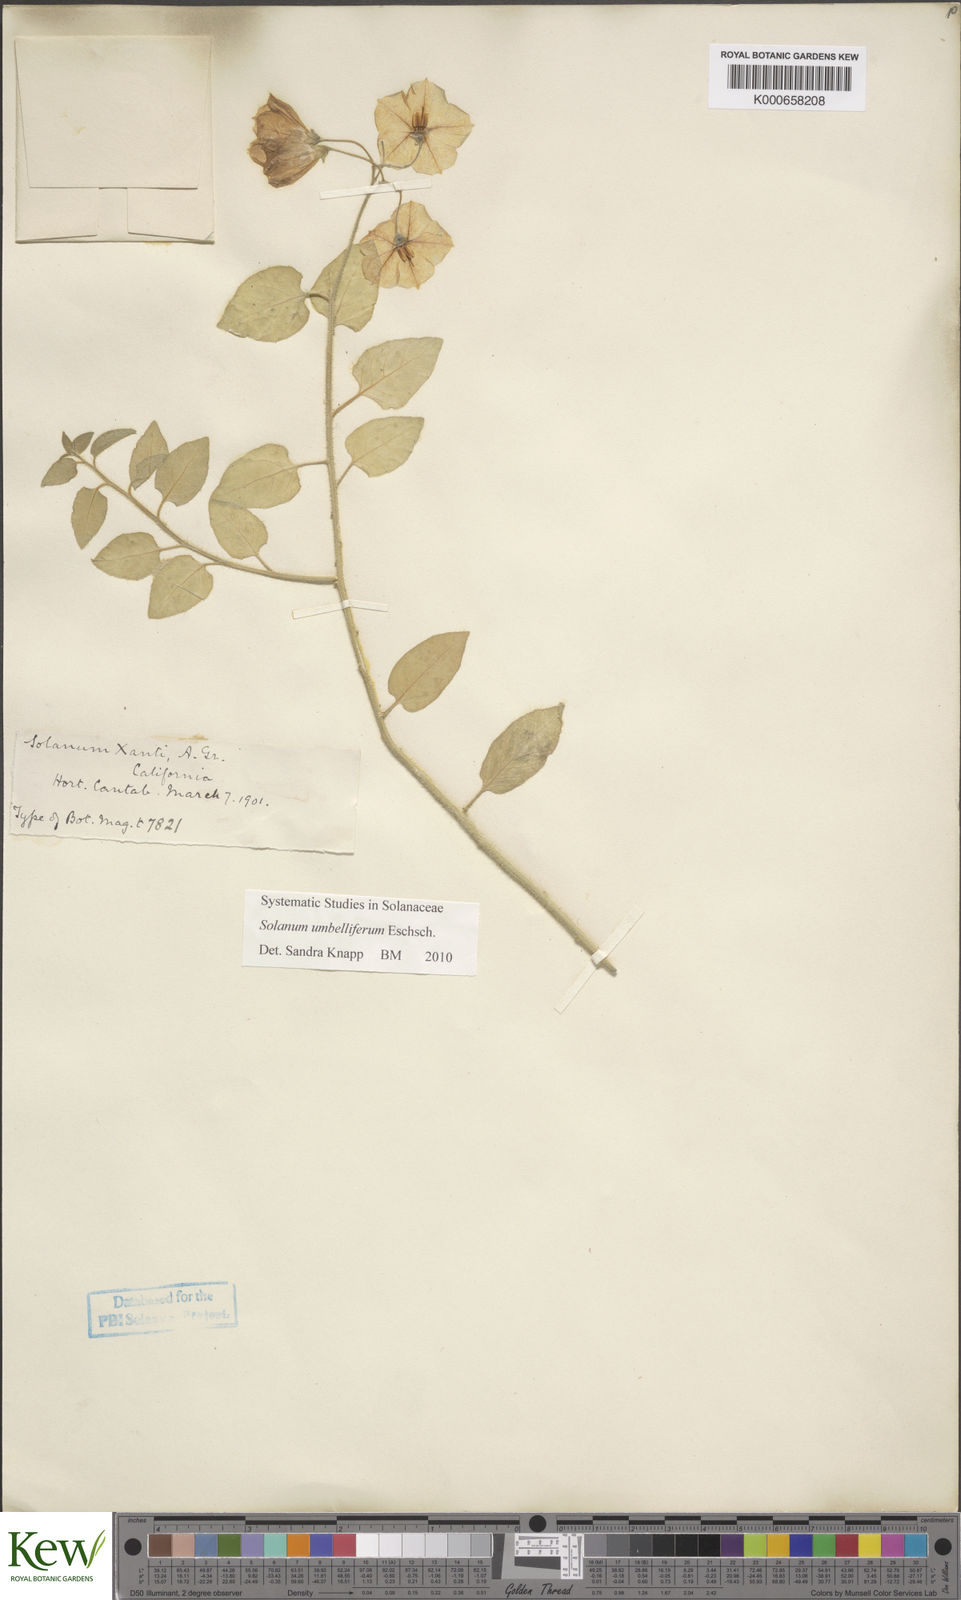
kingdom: Plantae
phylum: Tracheophyta
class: Magnoliopsida
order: Solanales
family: Solanaceae
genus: Solanum
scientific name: Solanum umbelliferum
